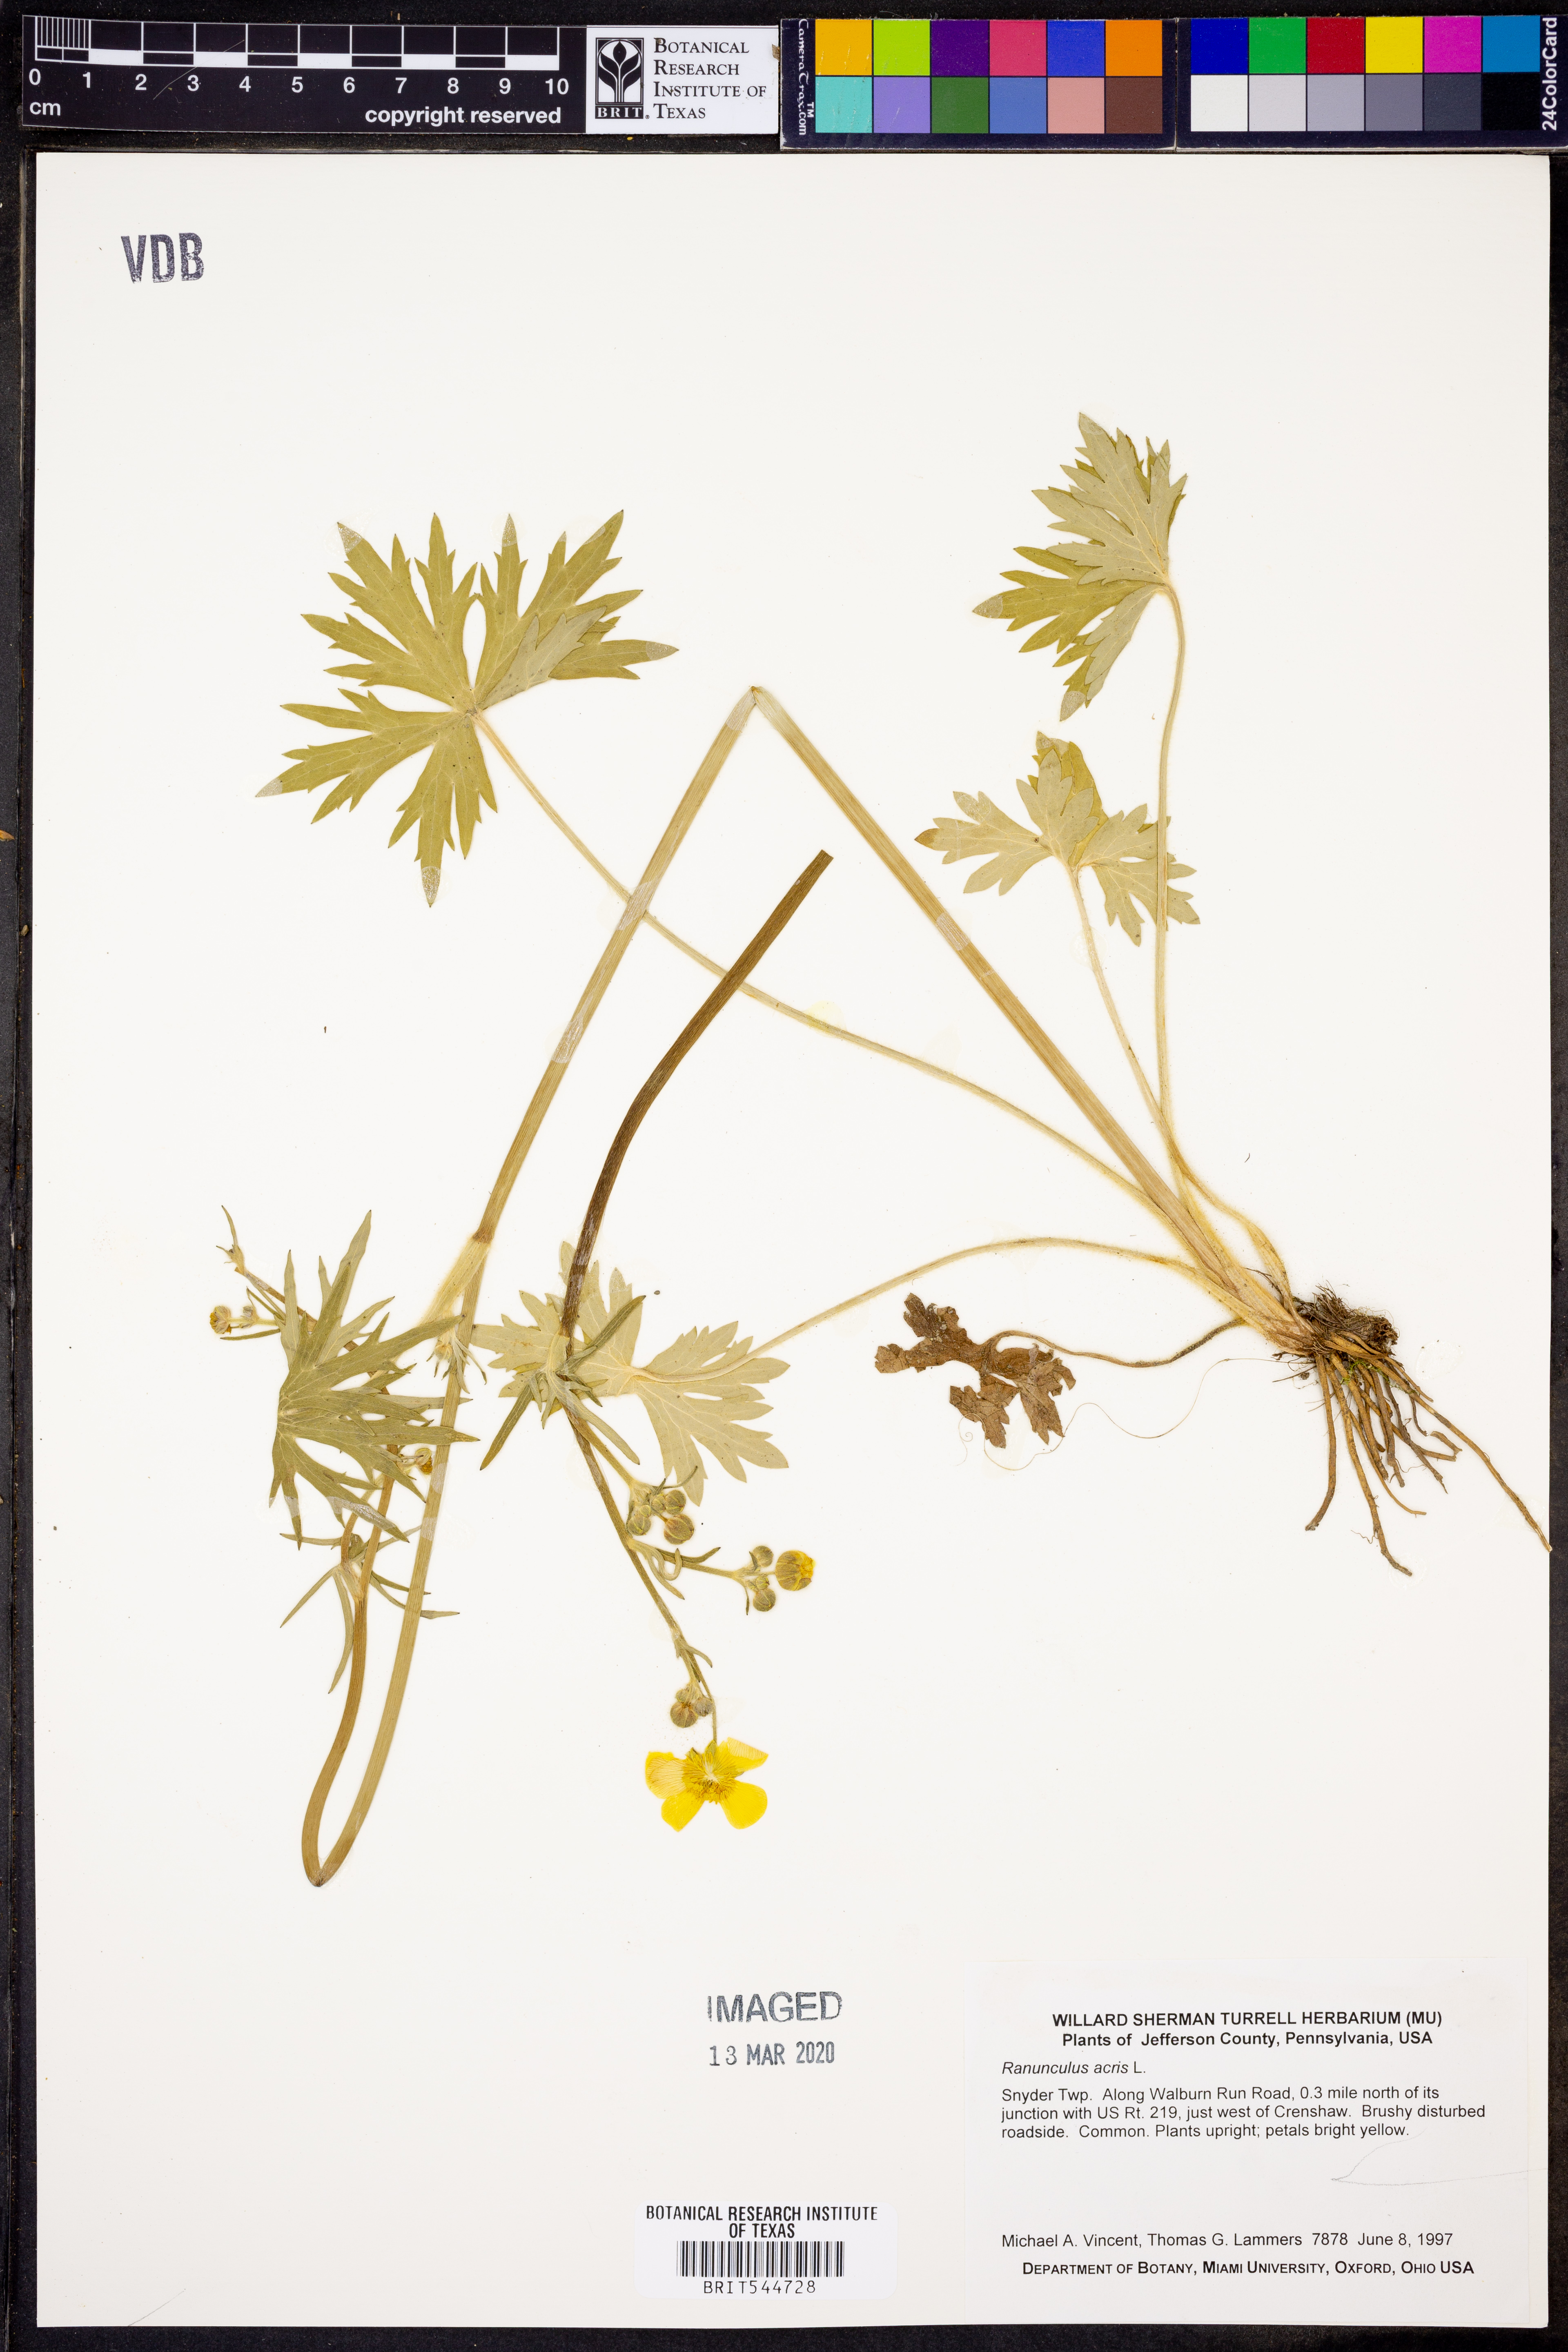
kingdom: Plantae
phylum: Tracheophyta
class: Magnoliopsida
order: Ranunculales
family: Ranunculaceae
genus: Ranunculus
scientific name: Ranunculus acris
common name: Meadow buttercup
